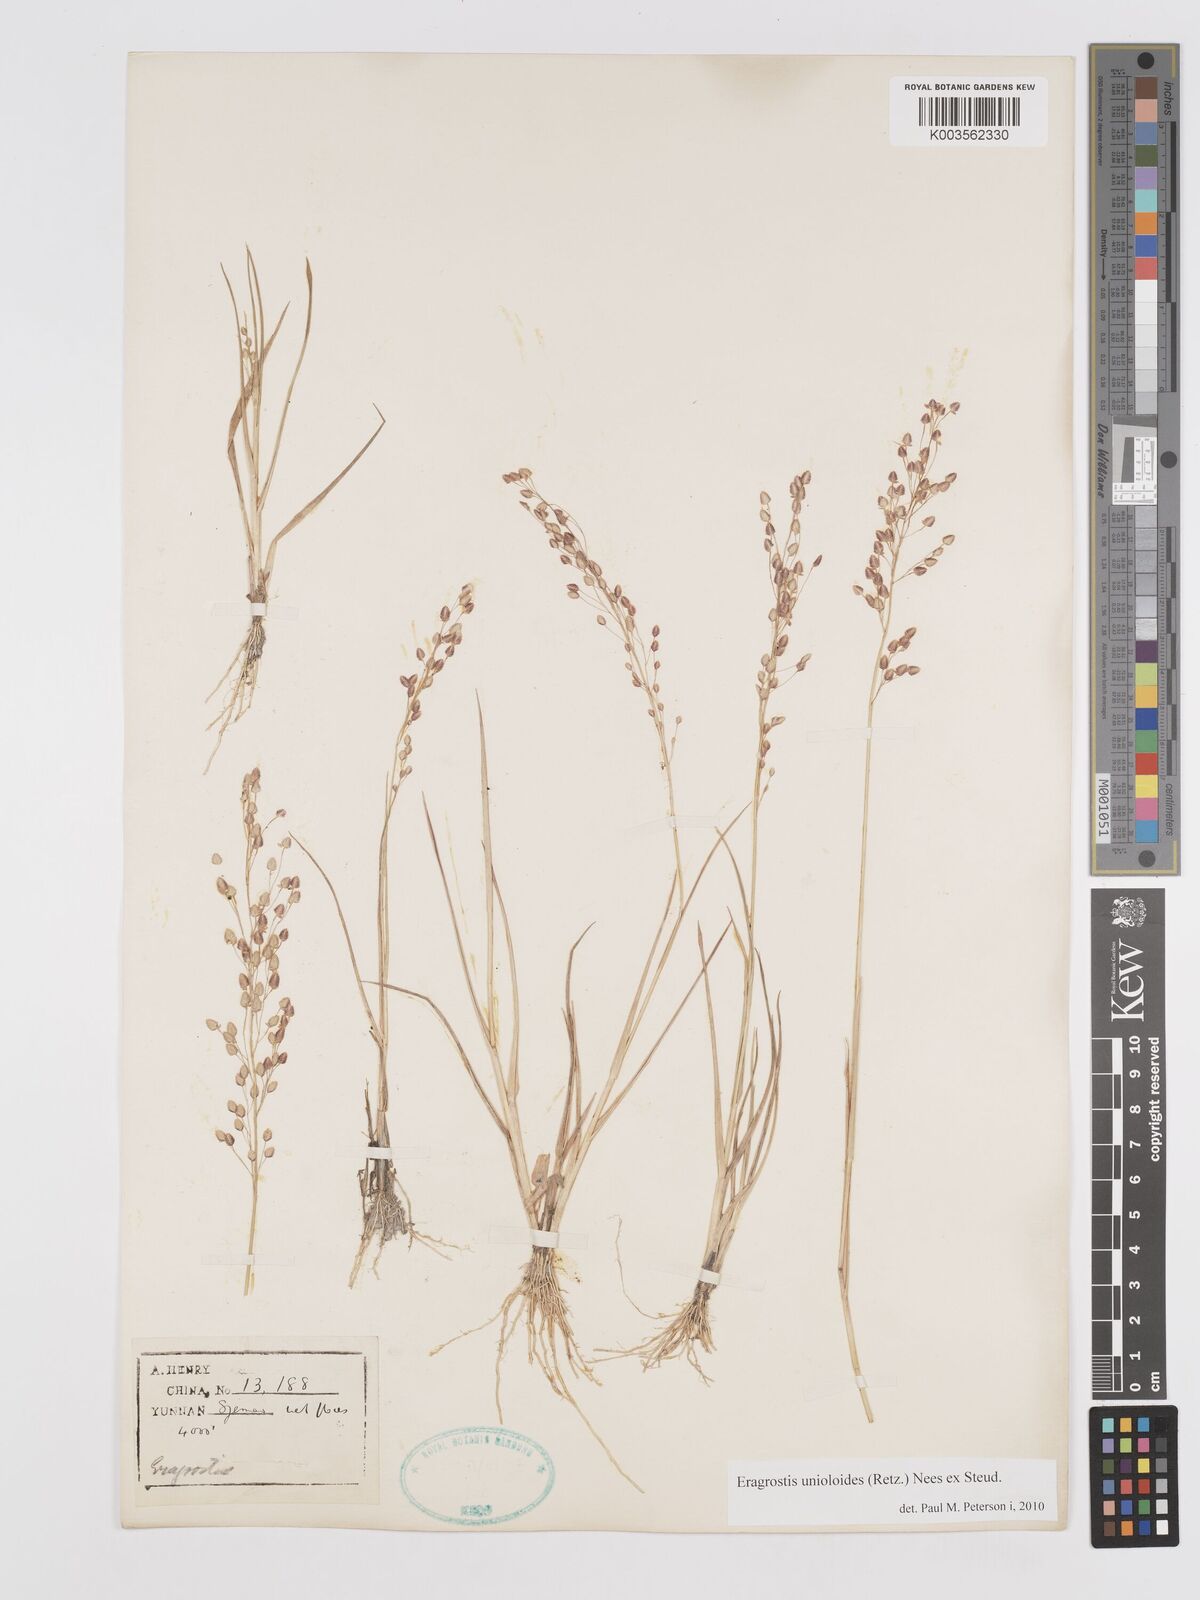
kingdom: Plantae
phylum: Tracheophyta
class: Liliopsida
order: Poales
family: Poaceae
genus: Eragrostis
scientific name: Eragrostis unioloides
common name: Chinese lovegrass
